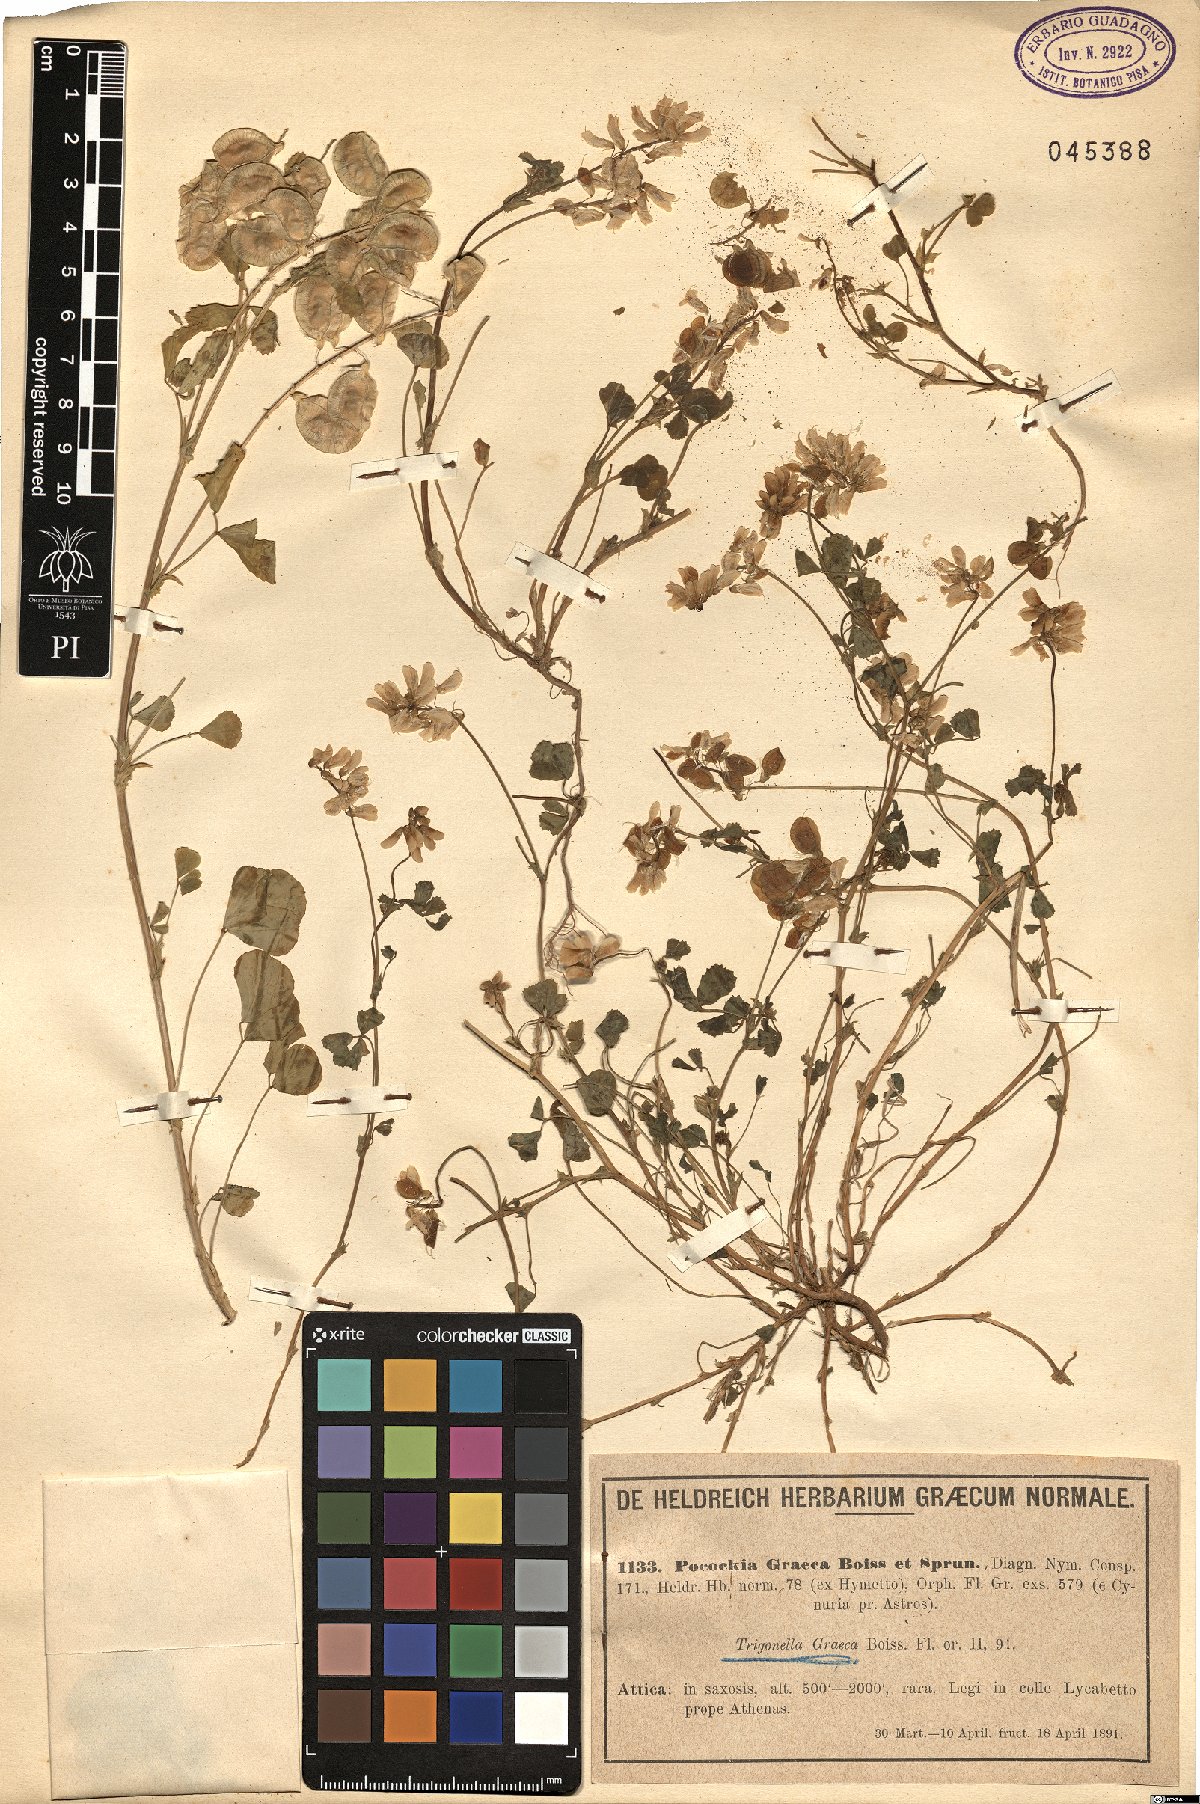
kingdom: Plantae
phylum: Tracheophyta
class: Magnoliopsida
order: Fabales
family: Fabaceae
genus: Trigonella
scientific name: Trigonella graeca
